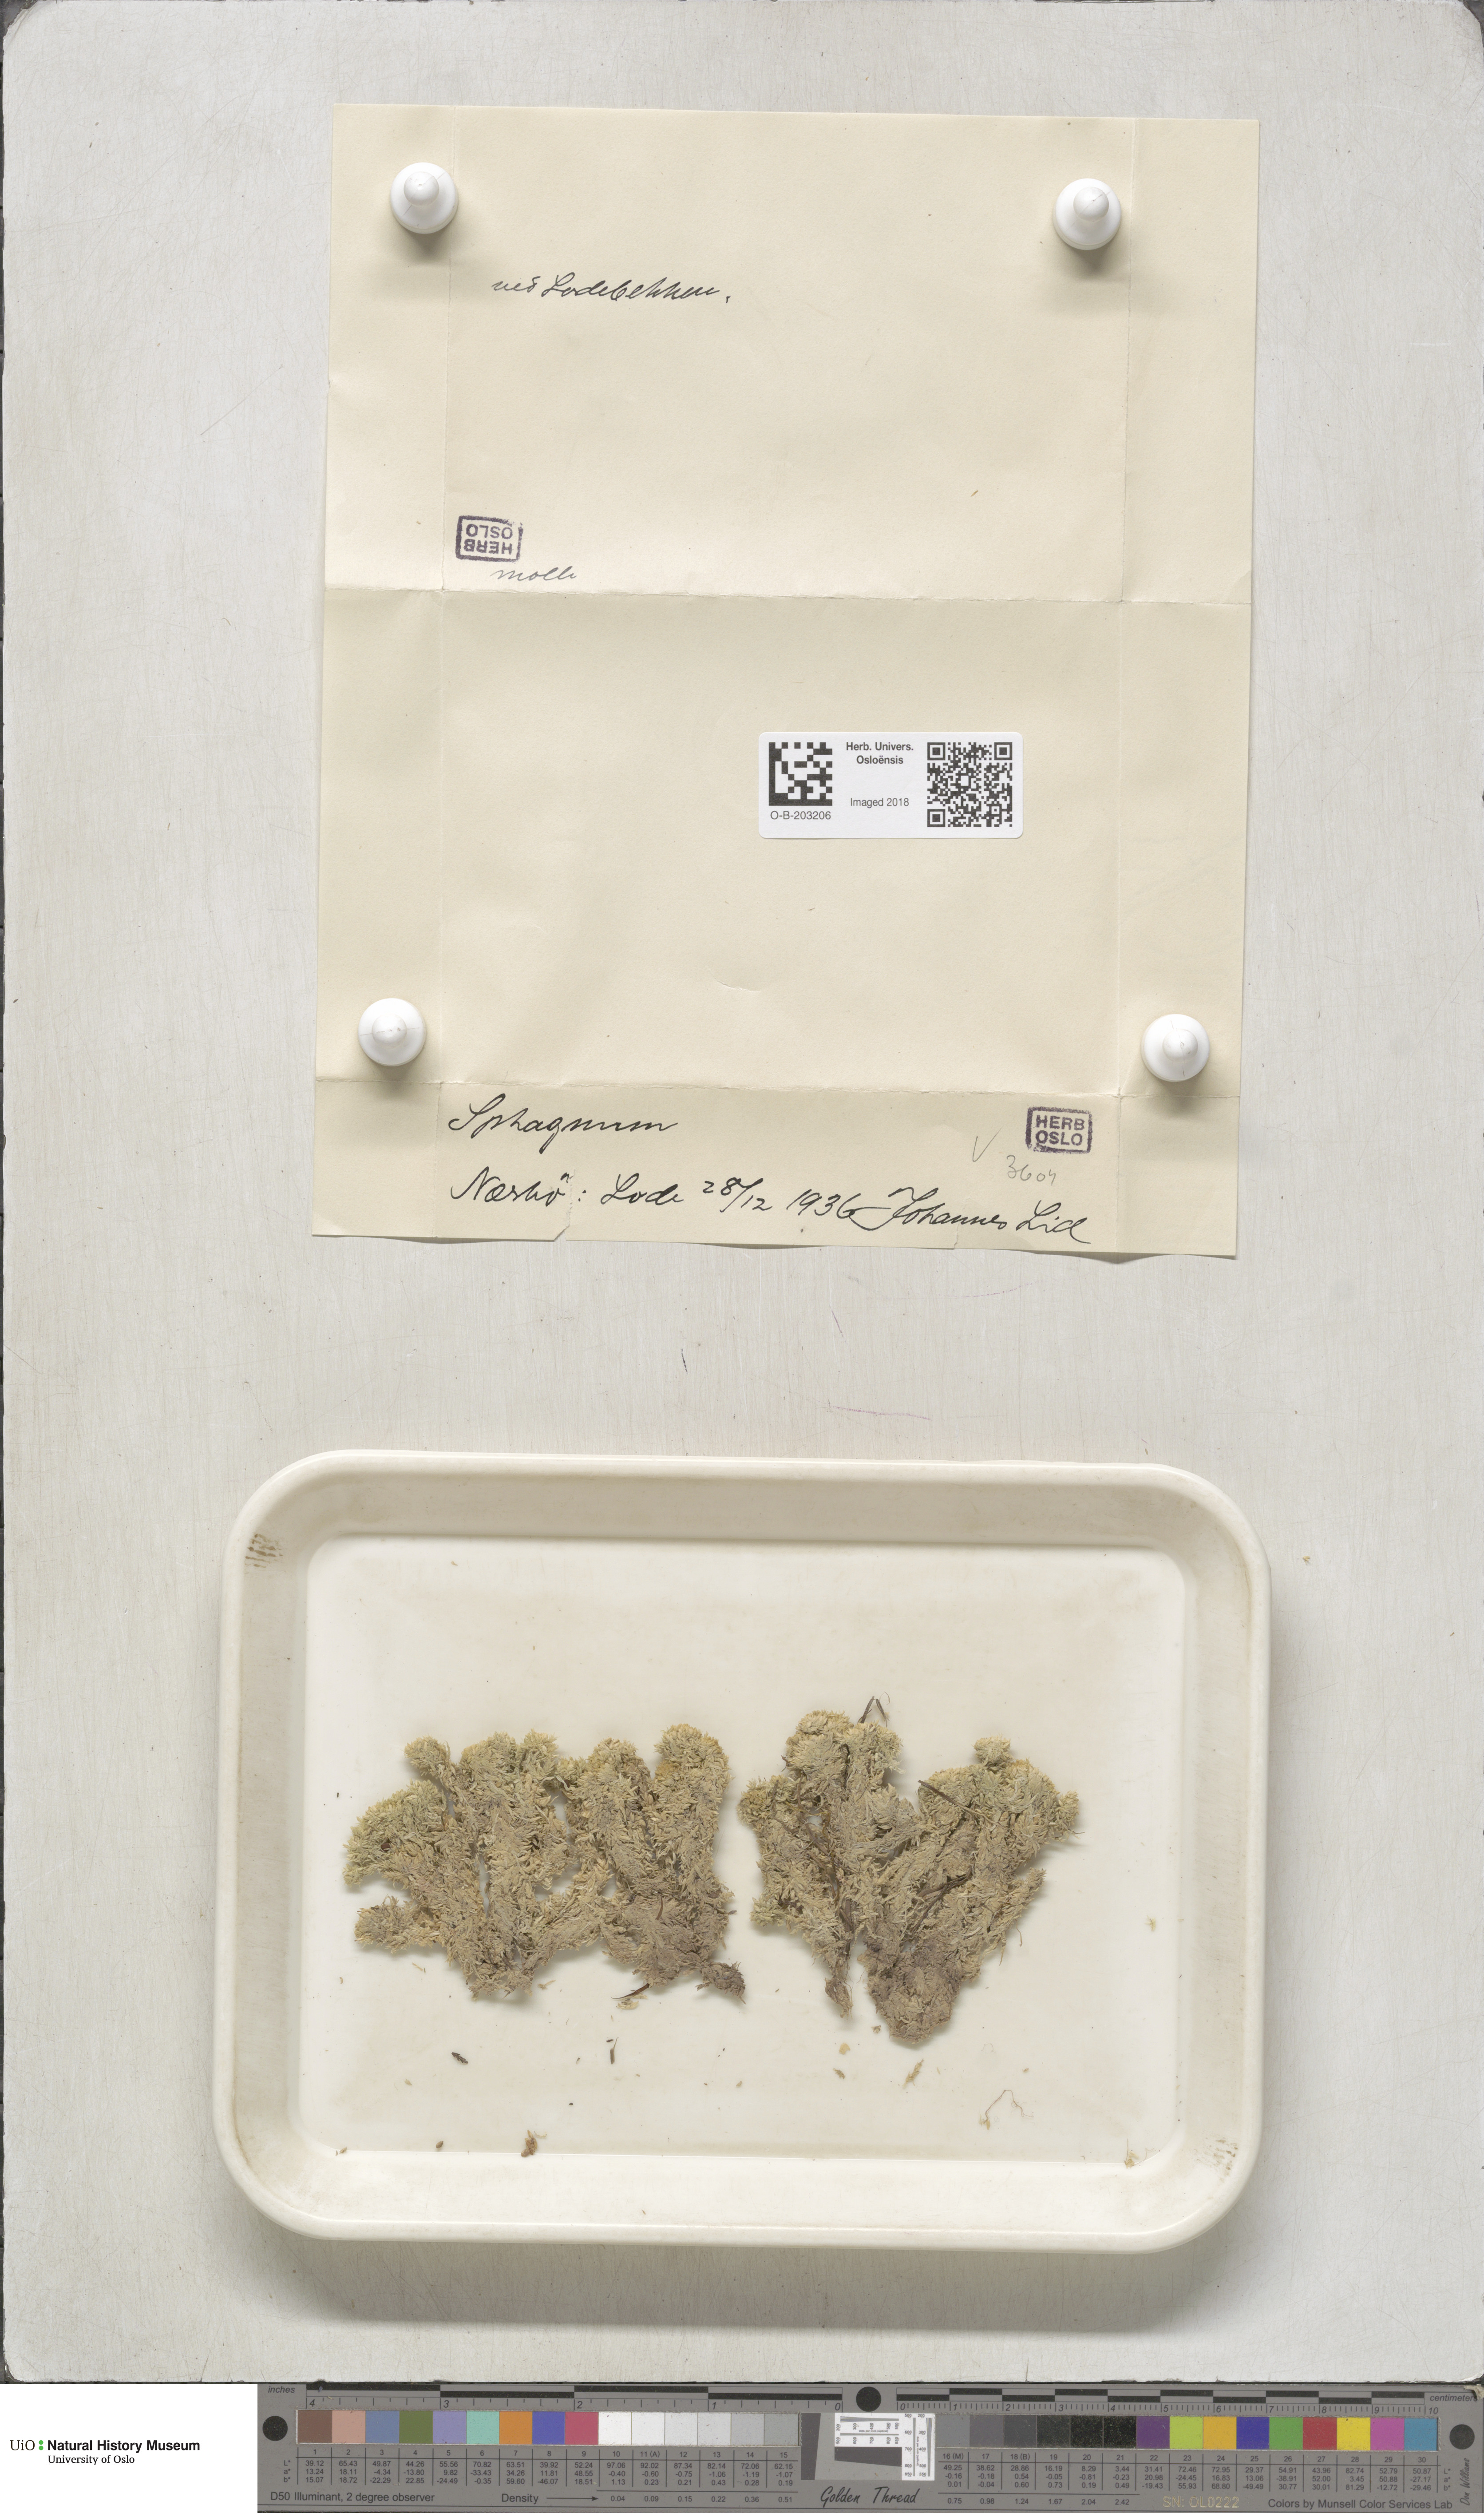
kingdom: Plantae
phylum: Bryophyta
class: Sphagnopsida
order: Sphagnales
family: Sphagnaceae
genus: Sphagnum
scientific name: Sphagnum molle
